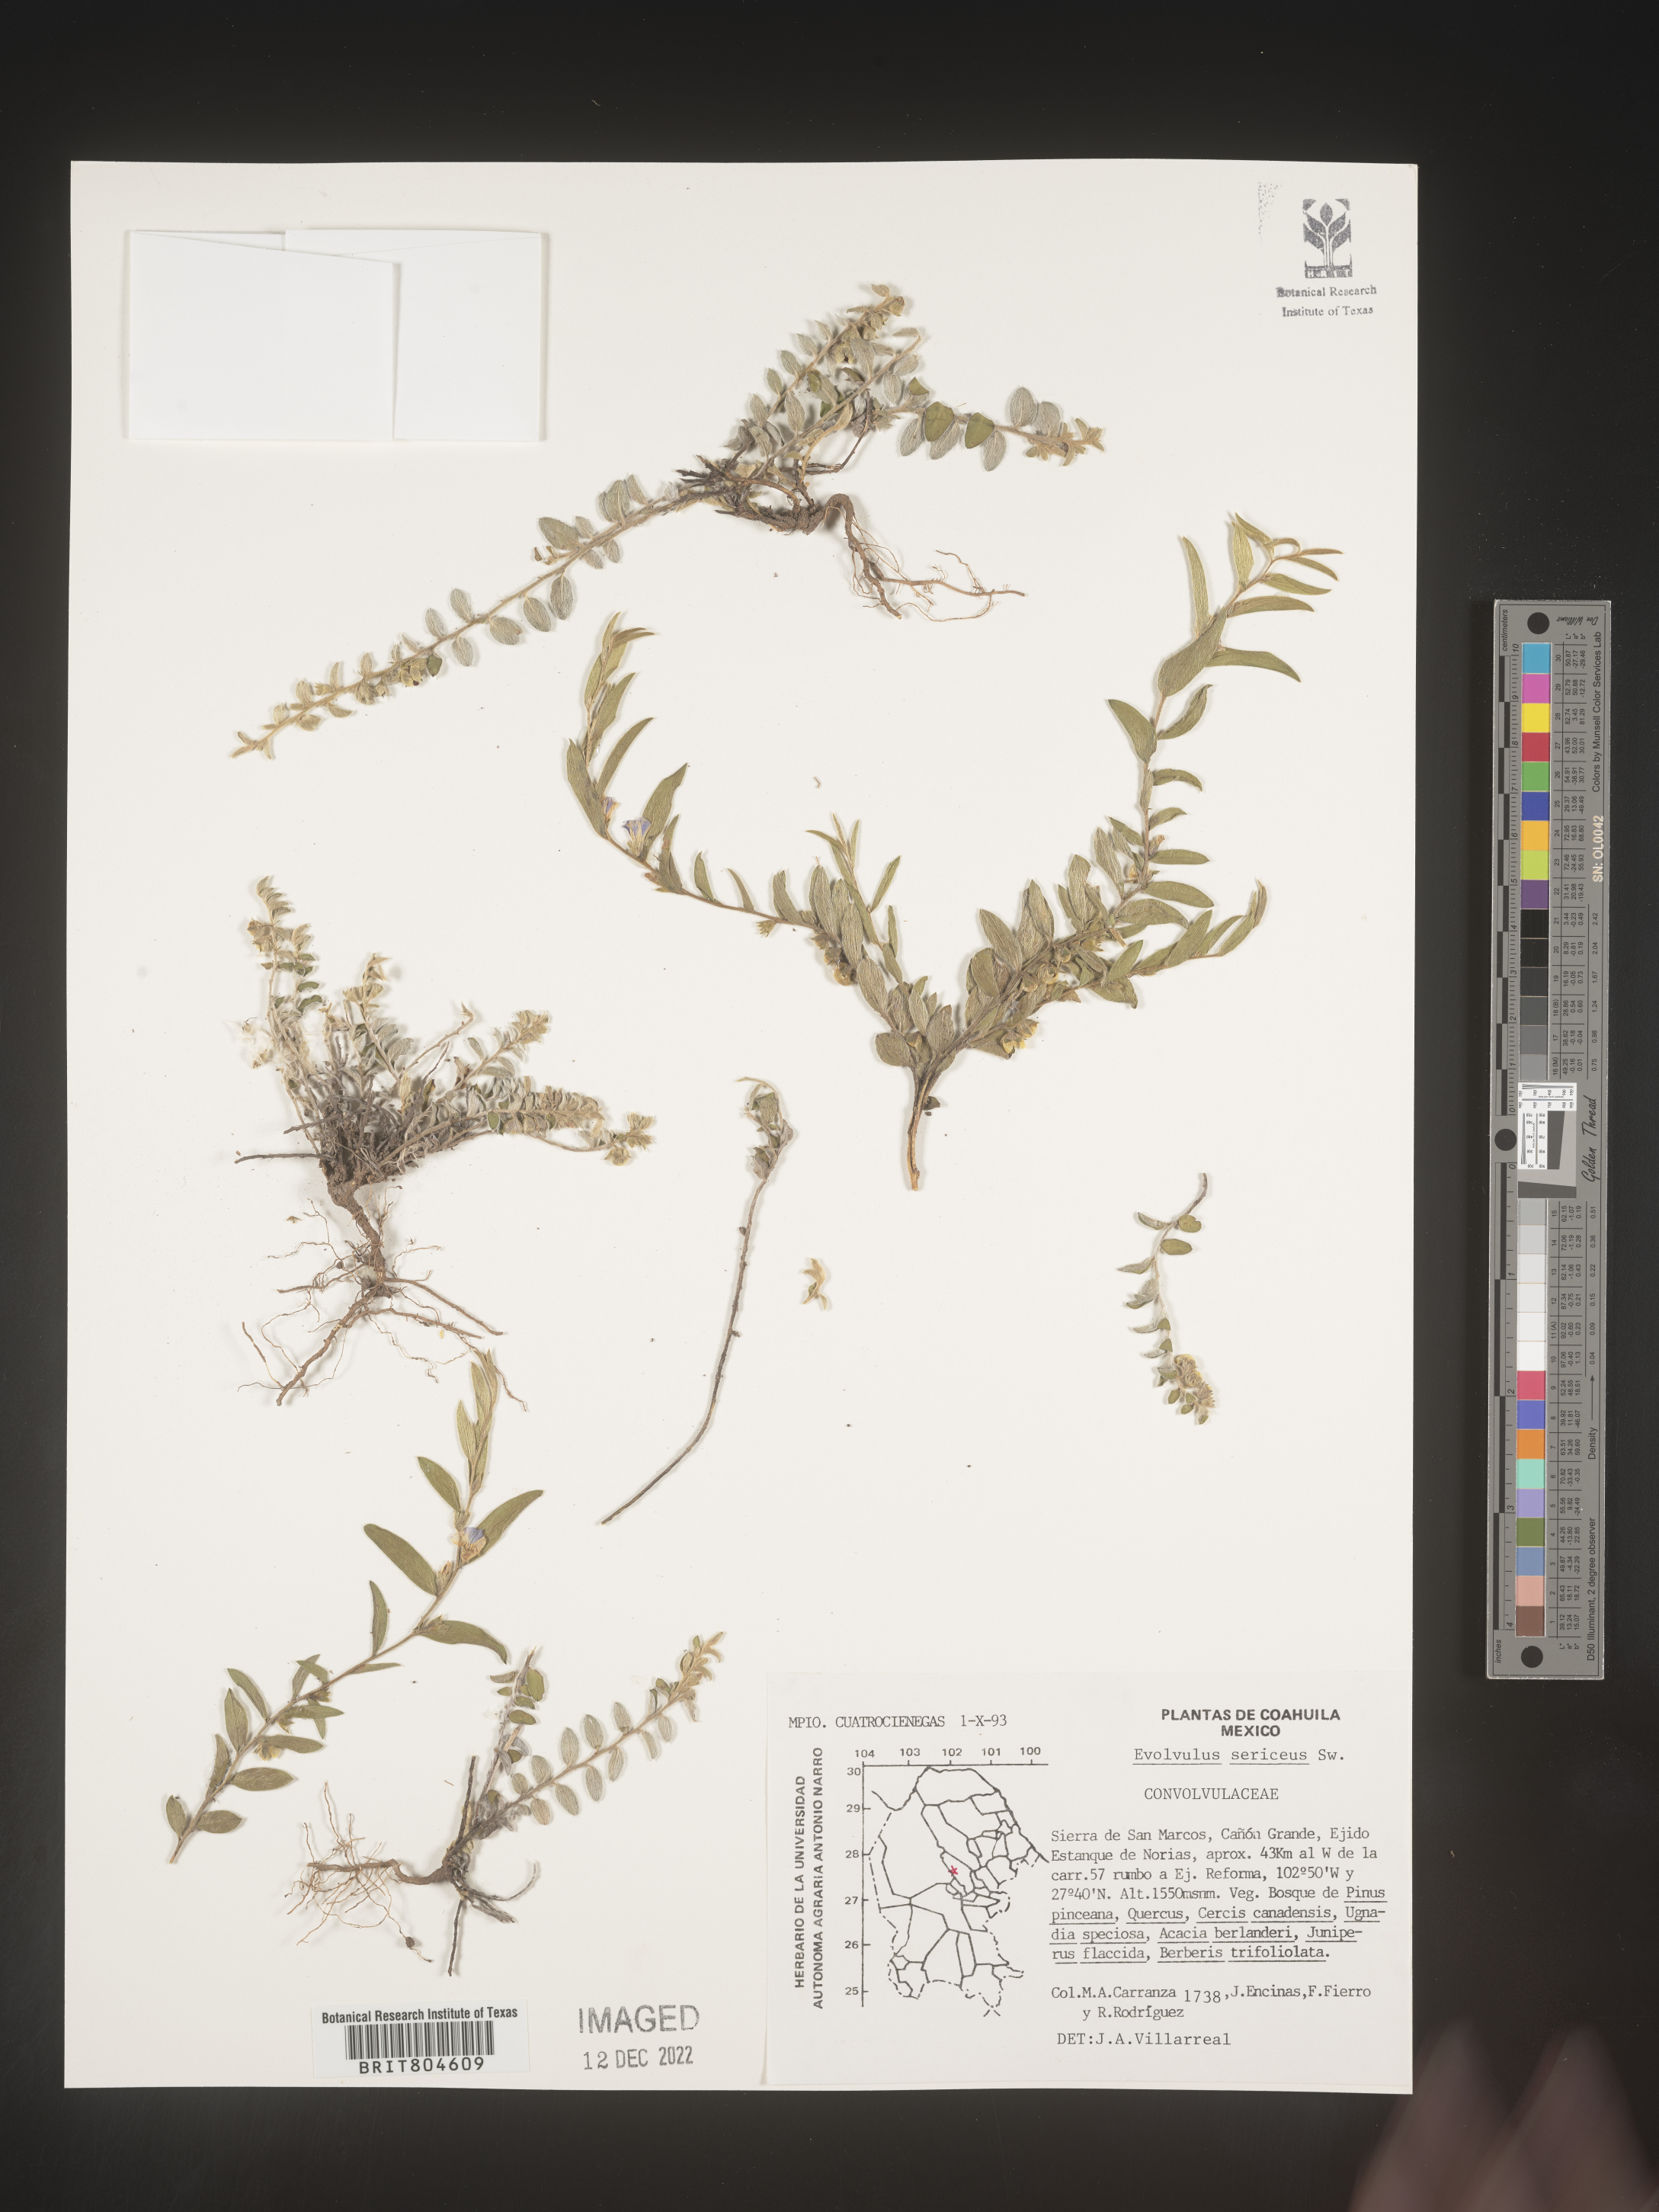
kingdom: Plantae
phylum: Tracheophyta
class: Magnoliopsida
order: Solanales
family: Convolvulaceae
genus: Evolvulus
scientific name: Evolvulus
